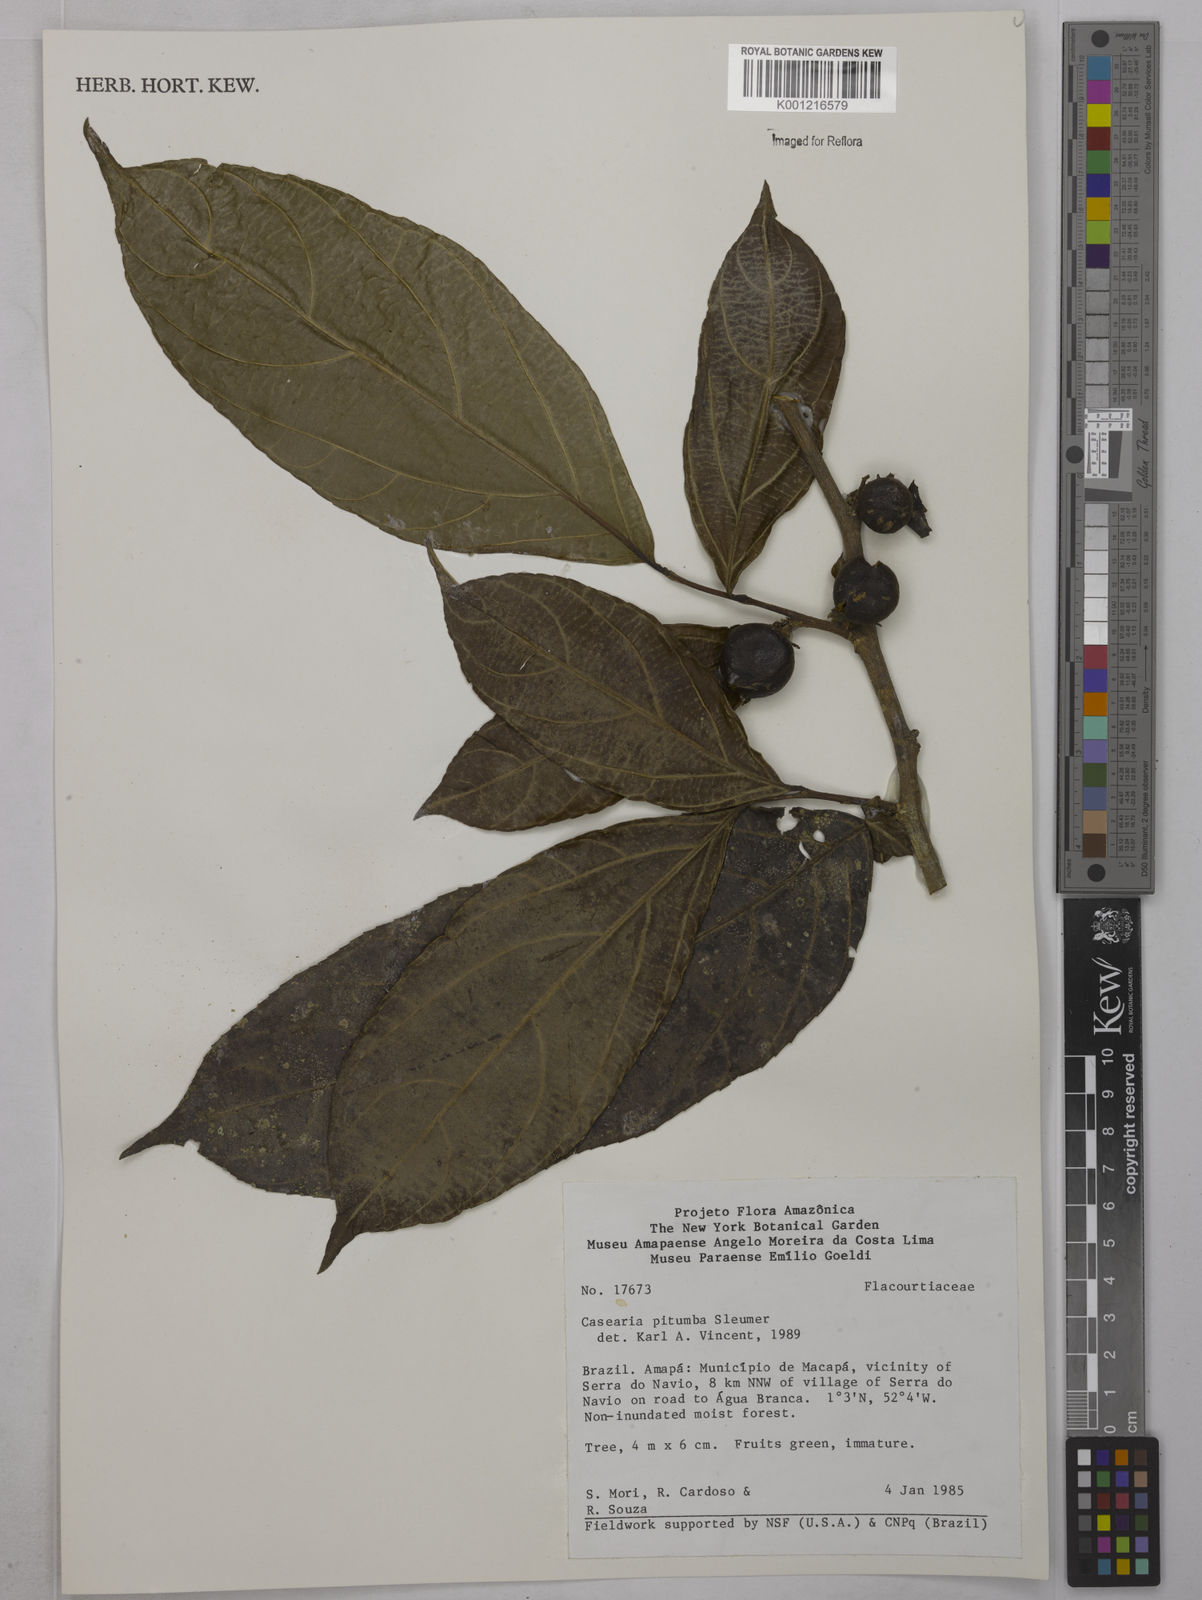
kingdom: Plantae
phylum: Tracheophyta
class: Magnoliopsida
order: Malpighiales
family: Salicaceae
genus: Casearia
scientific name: Casearia pitumba
